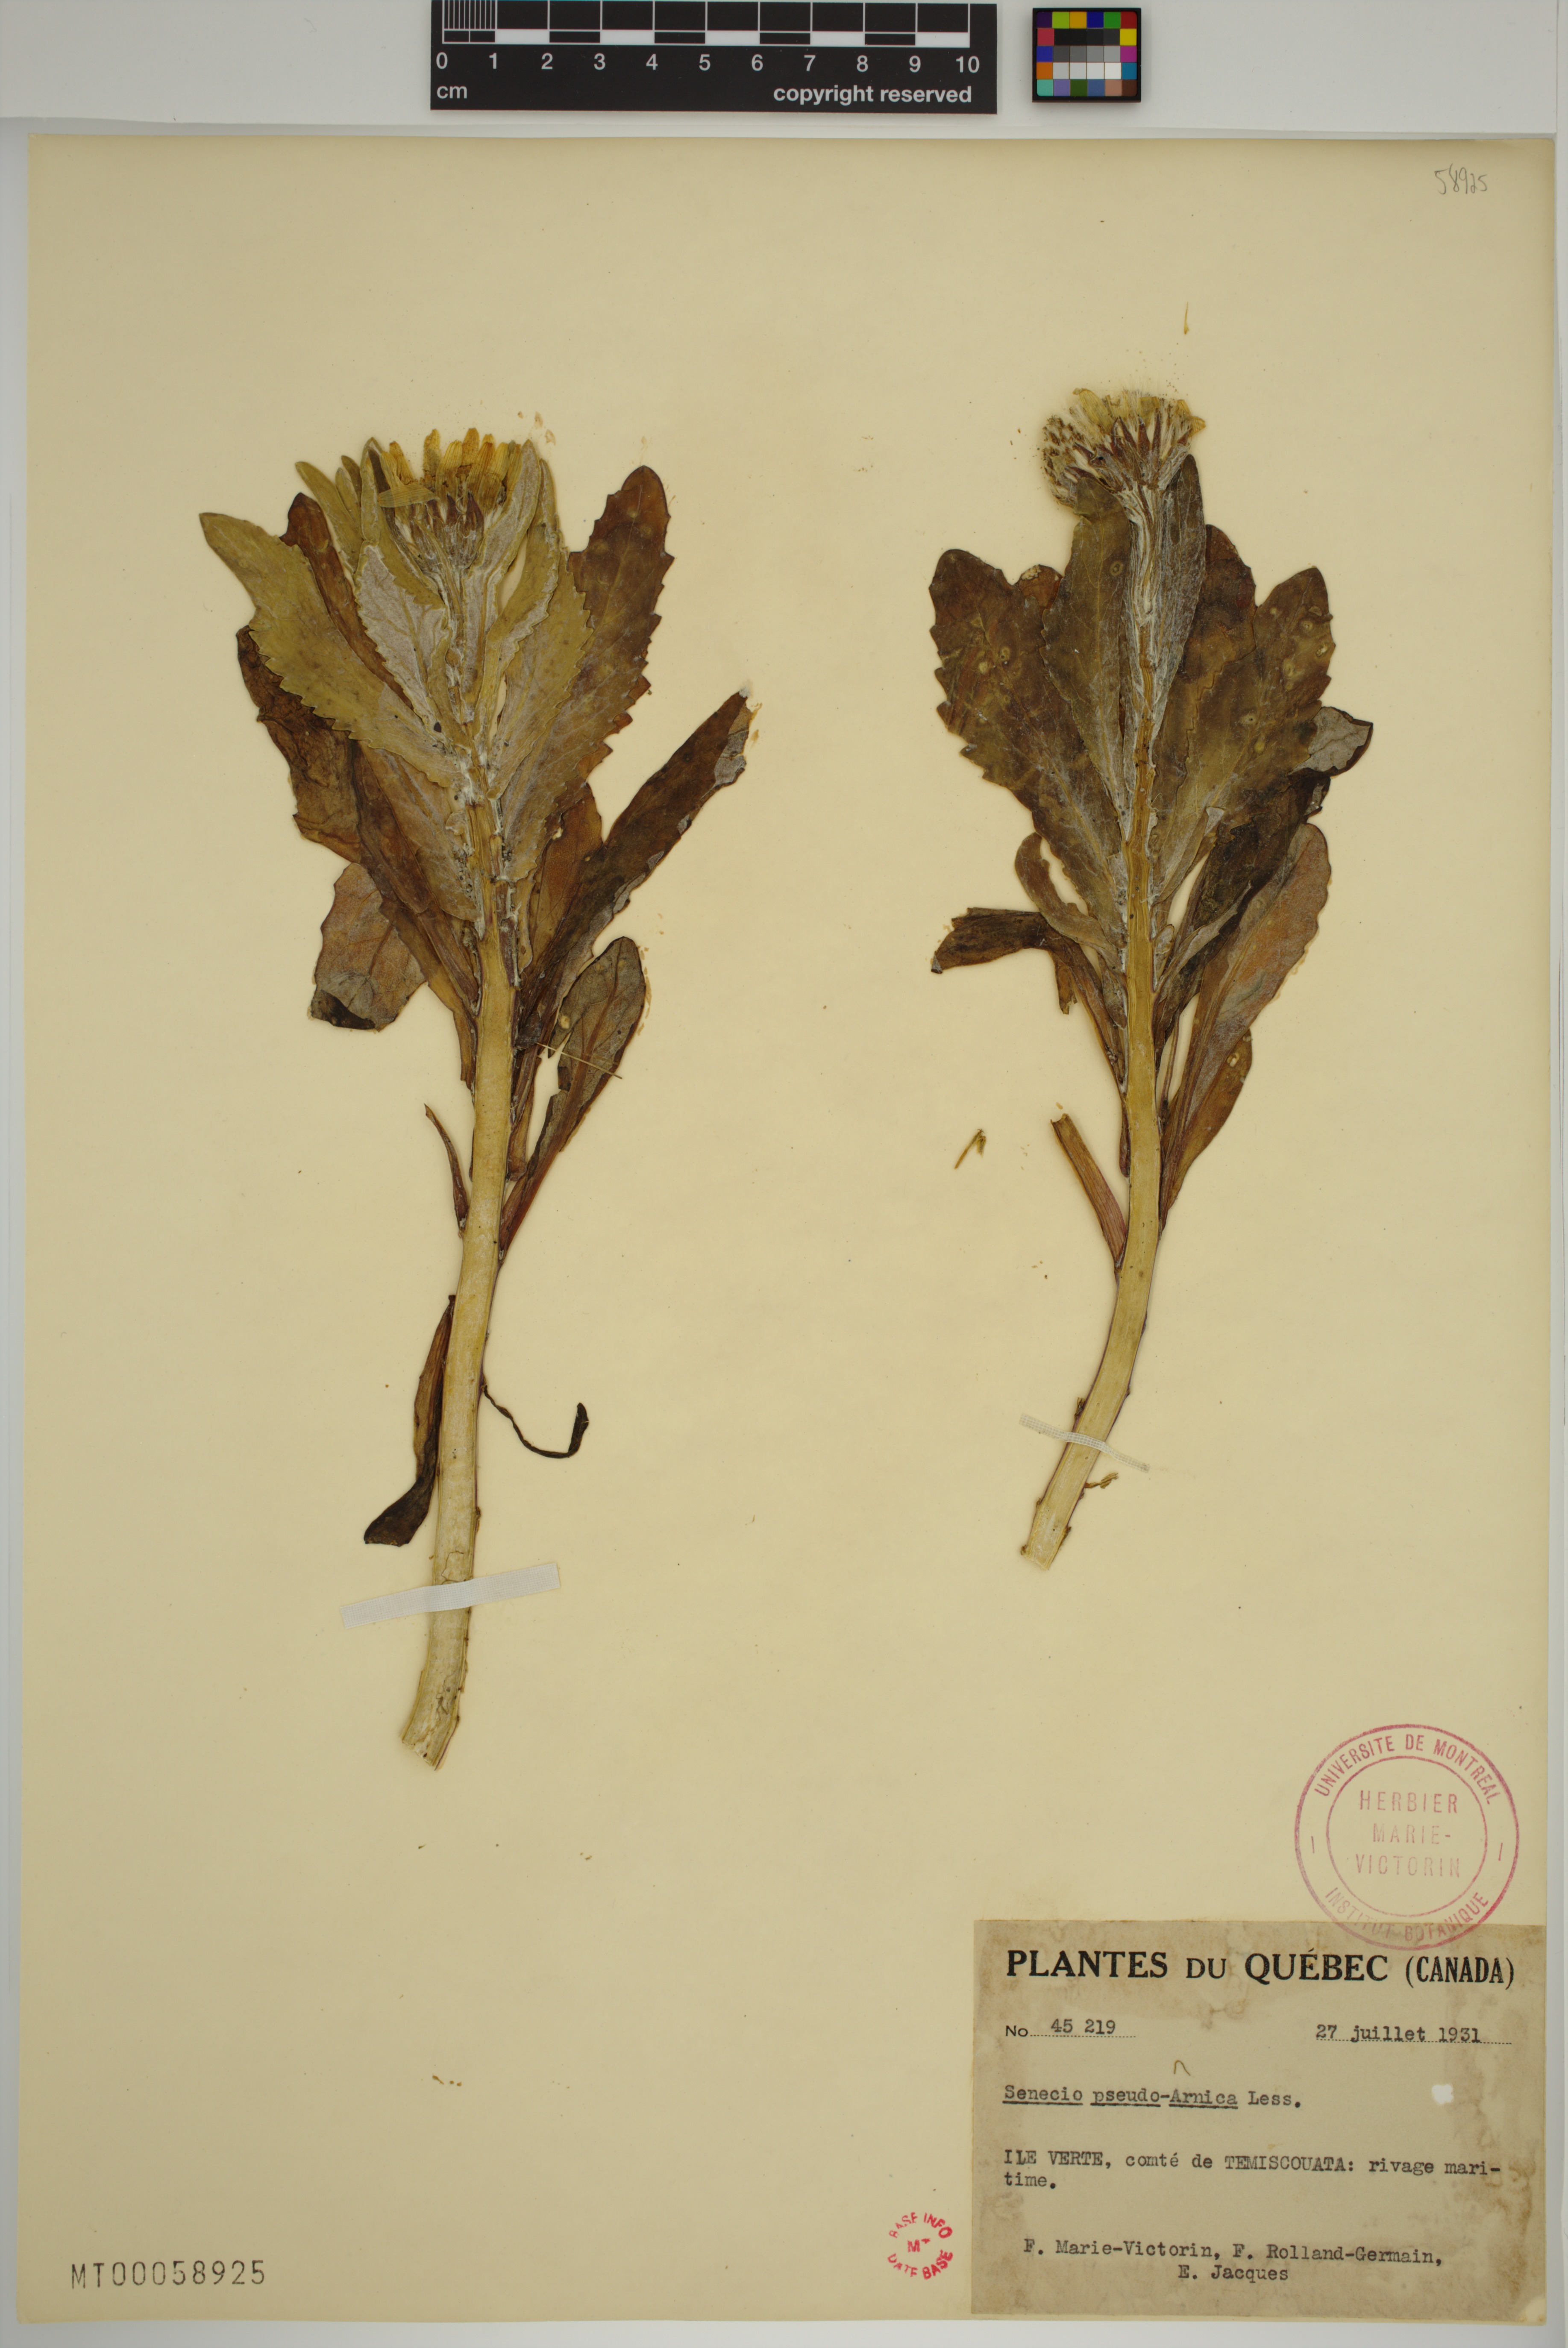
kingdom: Plantae
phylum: Tracheophyta
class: Magnoliopsida
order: Asterales
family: Asteraceae
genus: Jacobaea
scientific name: Jacobaea pseudoarnica
